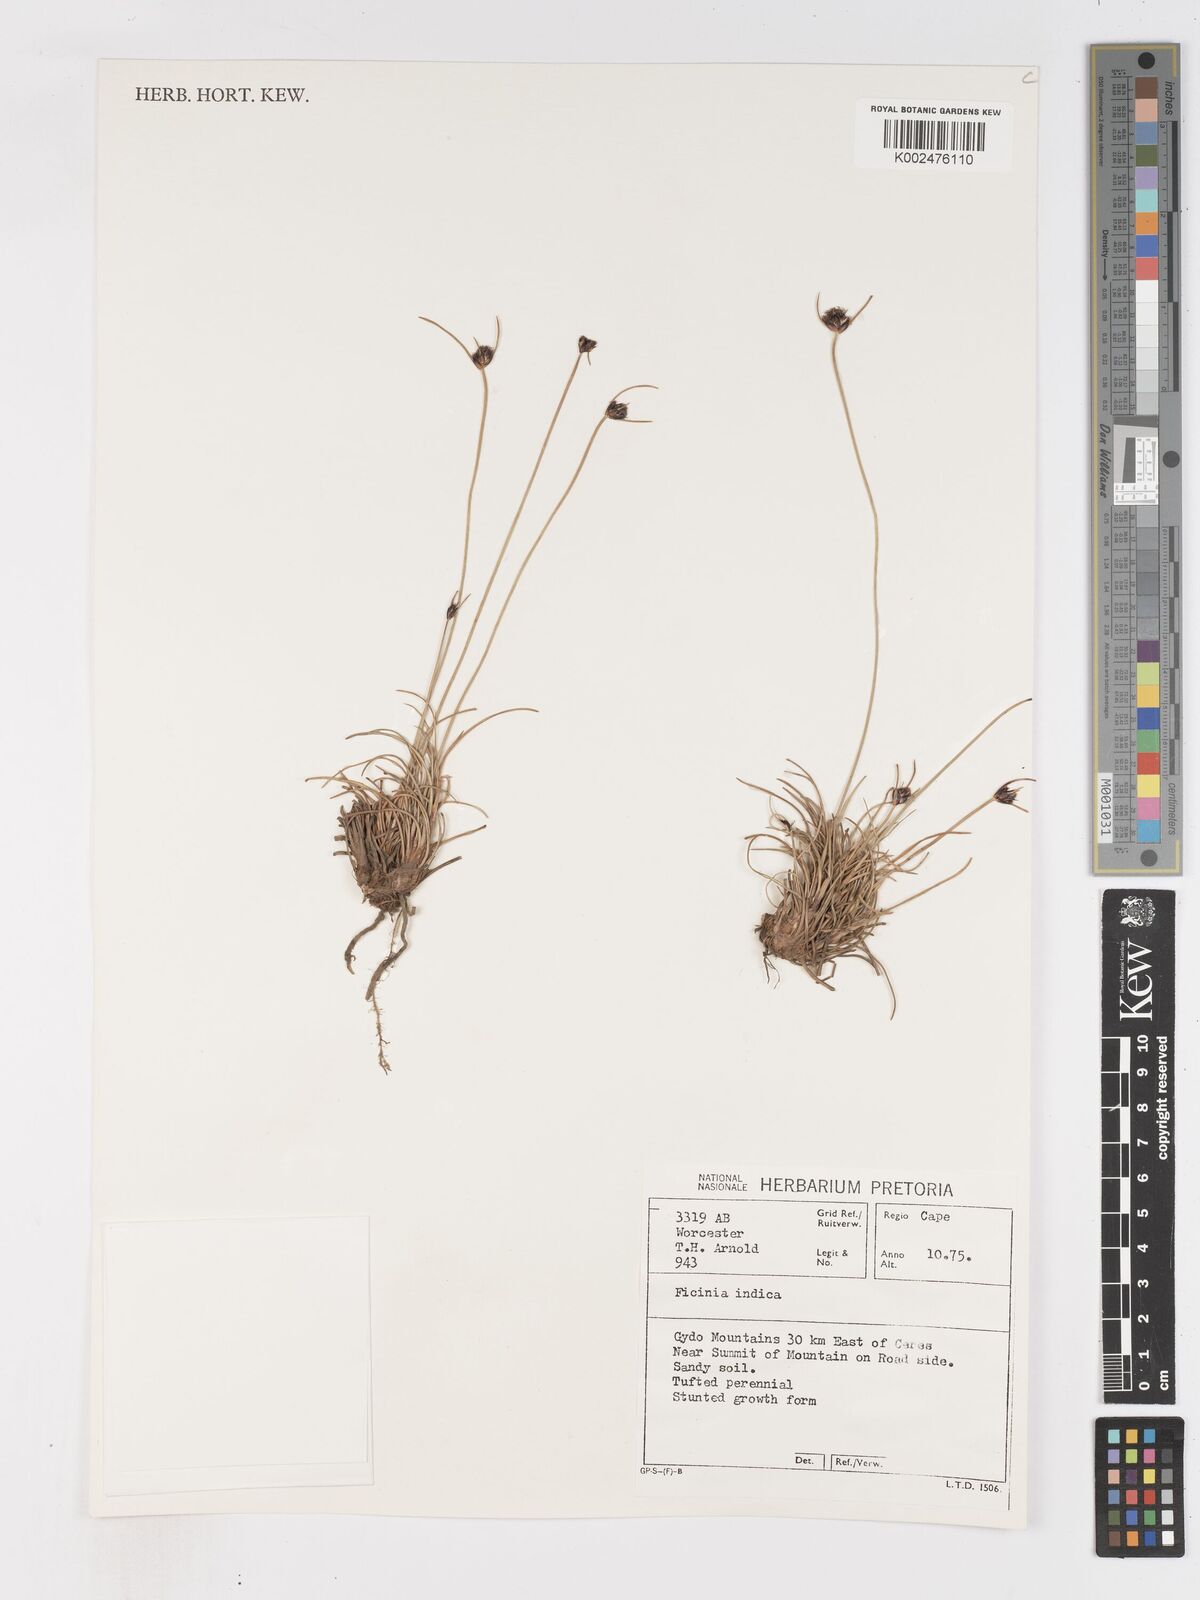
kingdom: Plantae
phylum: Tracheophyta
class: Liliopsida
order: Poales
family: Cyperaceae
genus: Ficinia
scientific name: Ficinia indica
